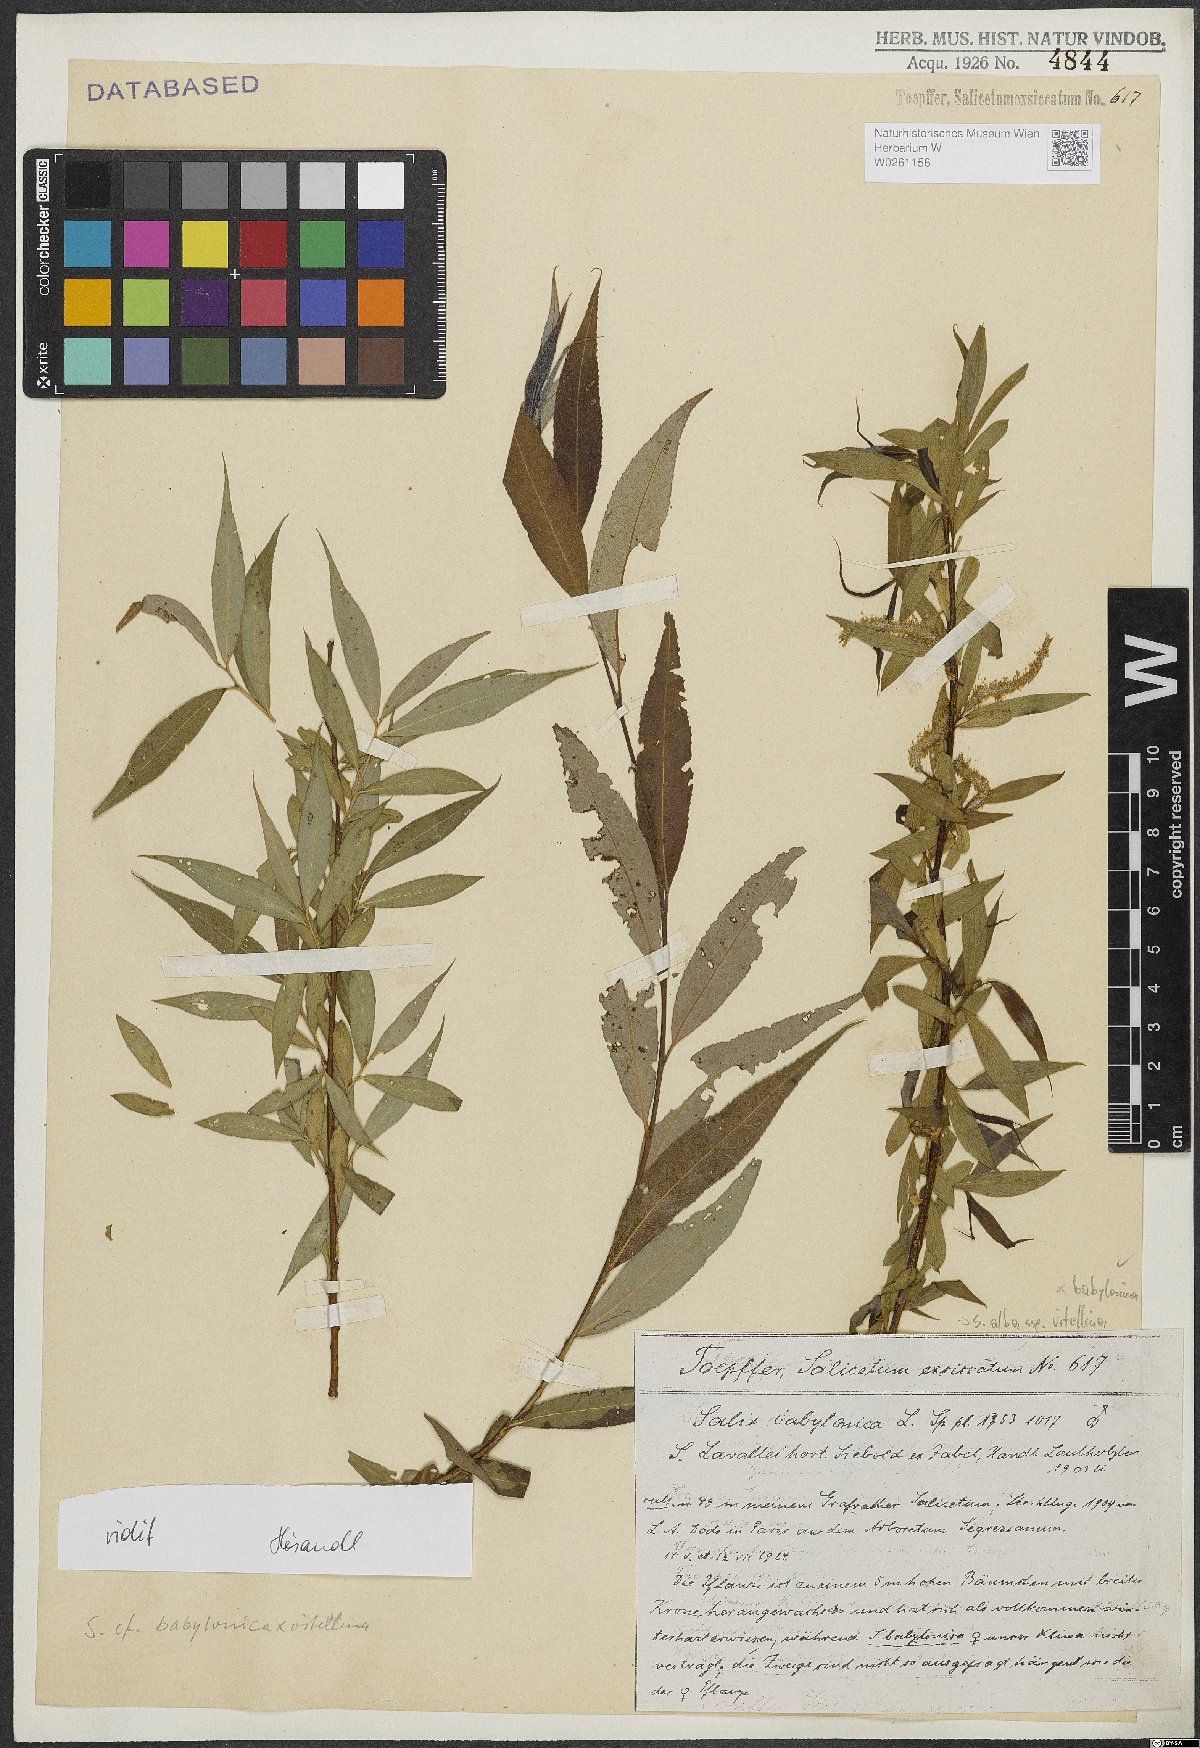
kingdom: Plantae
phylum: Tracheophyta
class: Magnoliopsida
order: Malpighiales
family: Salicaceae
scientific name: Salicaceae
